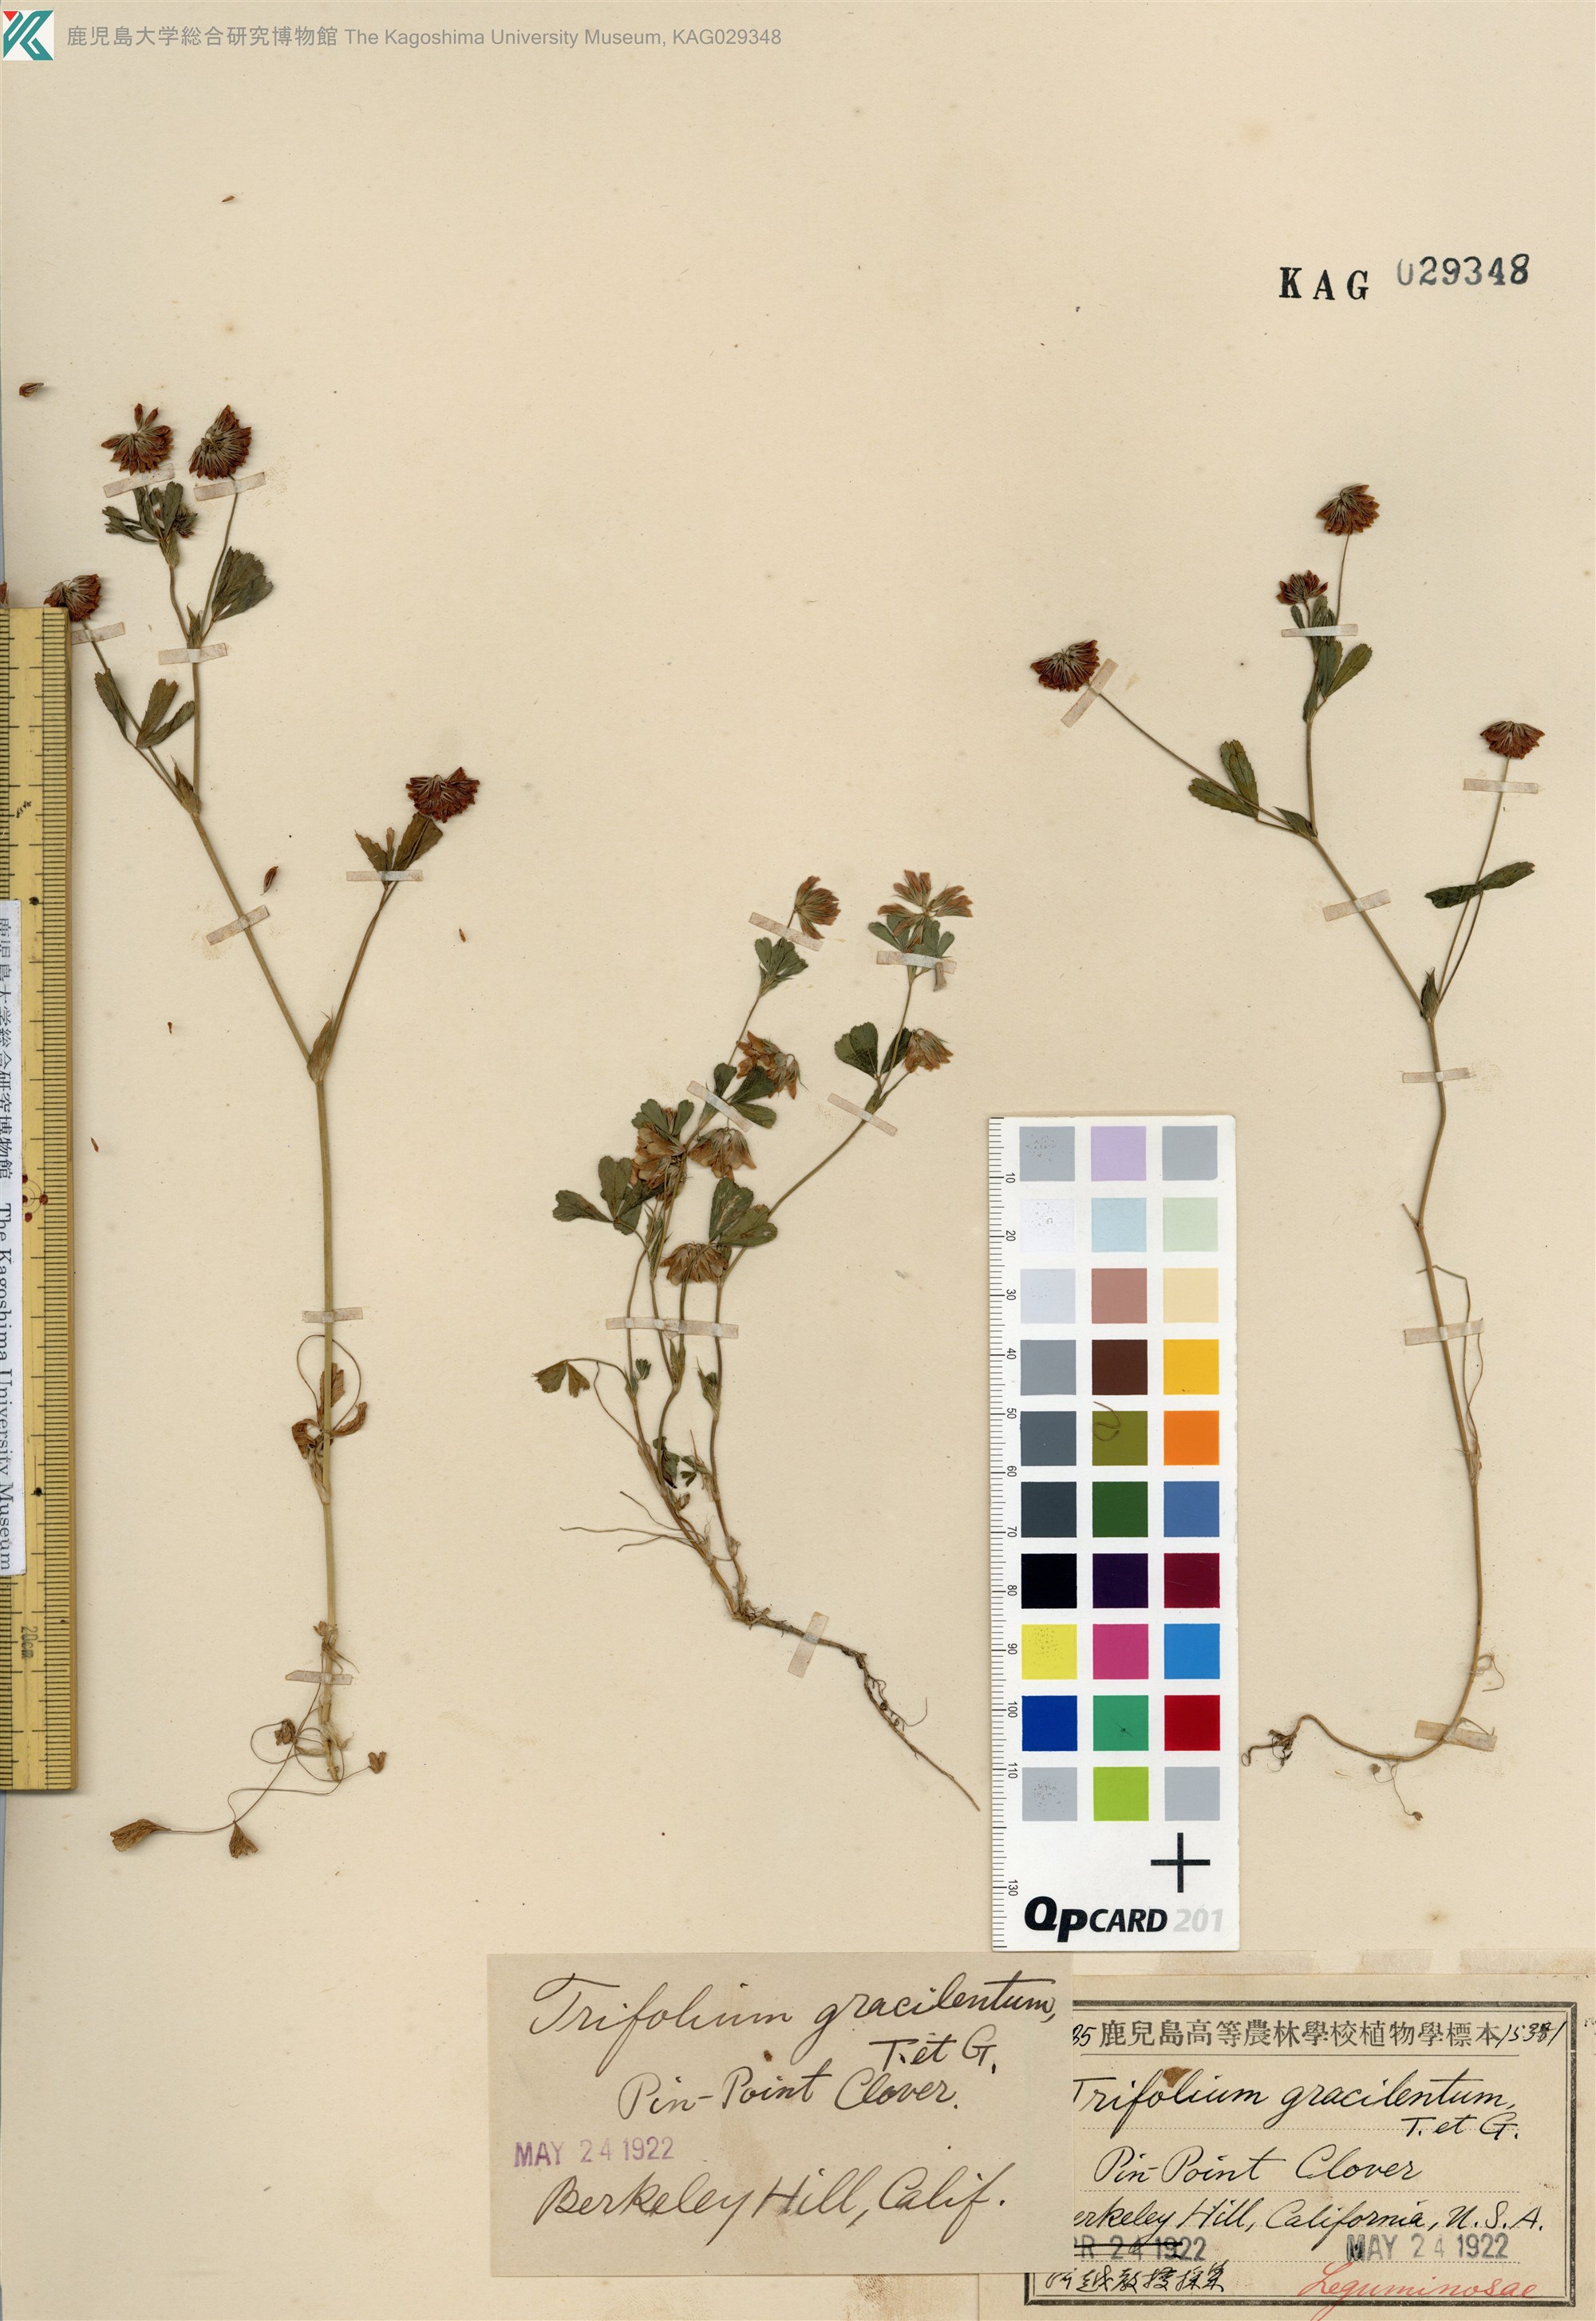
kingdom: Plantae
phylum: Tracheophyta
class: Magnoliopsida
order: Fabales
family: Fabaceae
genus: Trifolium
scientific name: Trifolium gracilentum
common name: Slender clover
